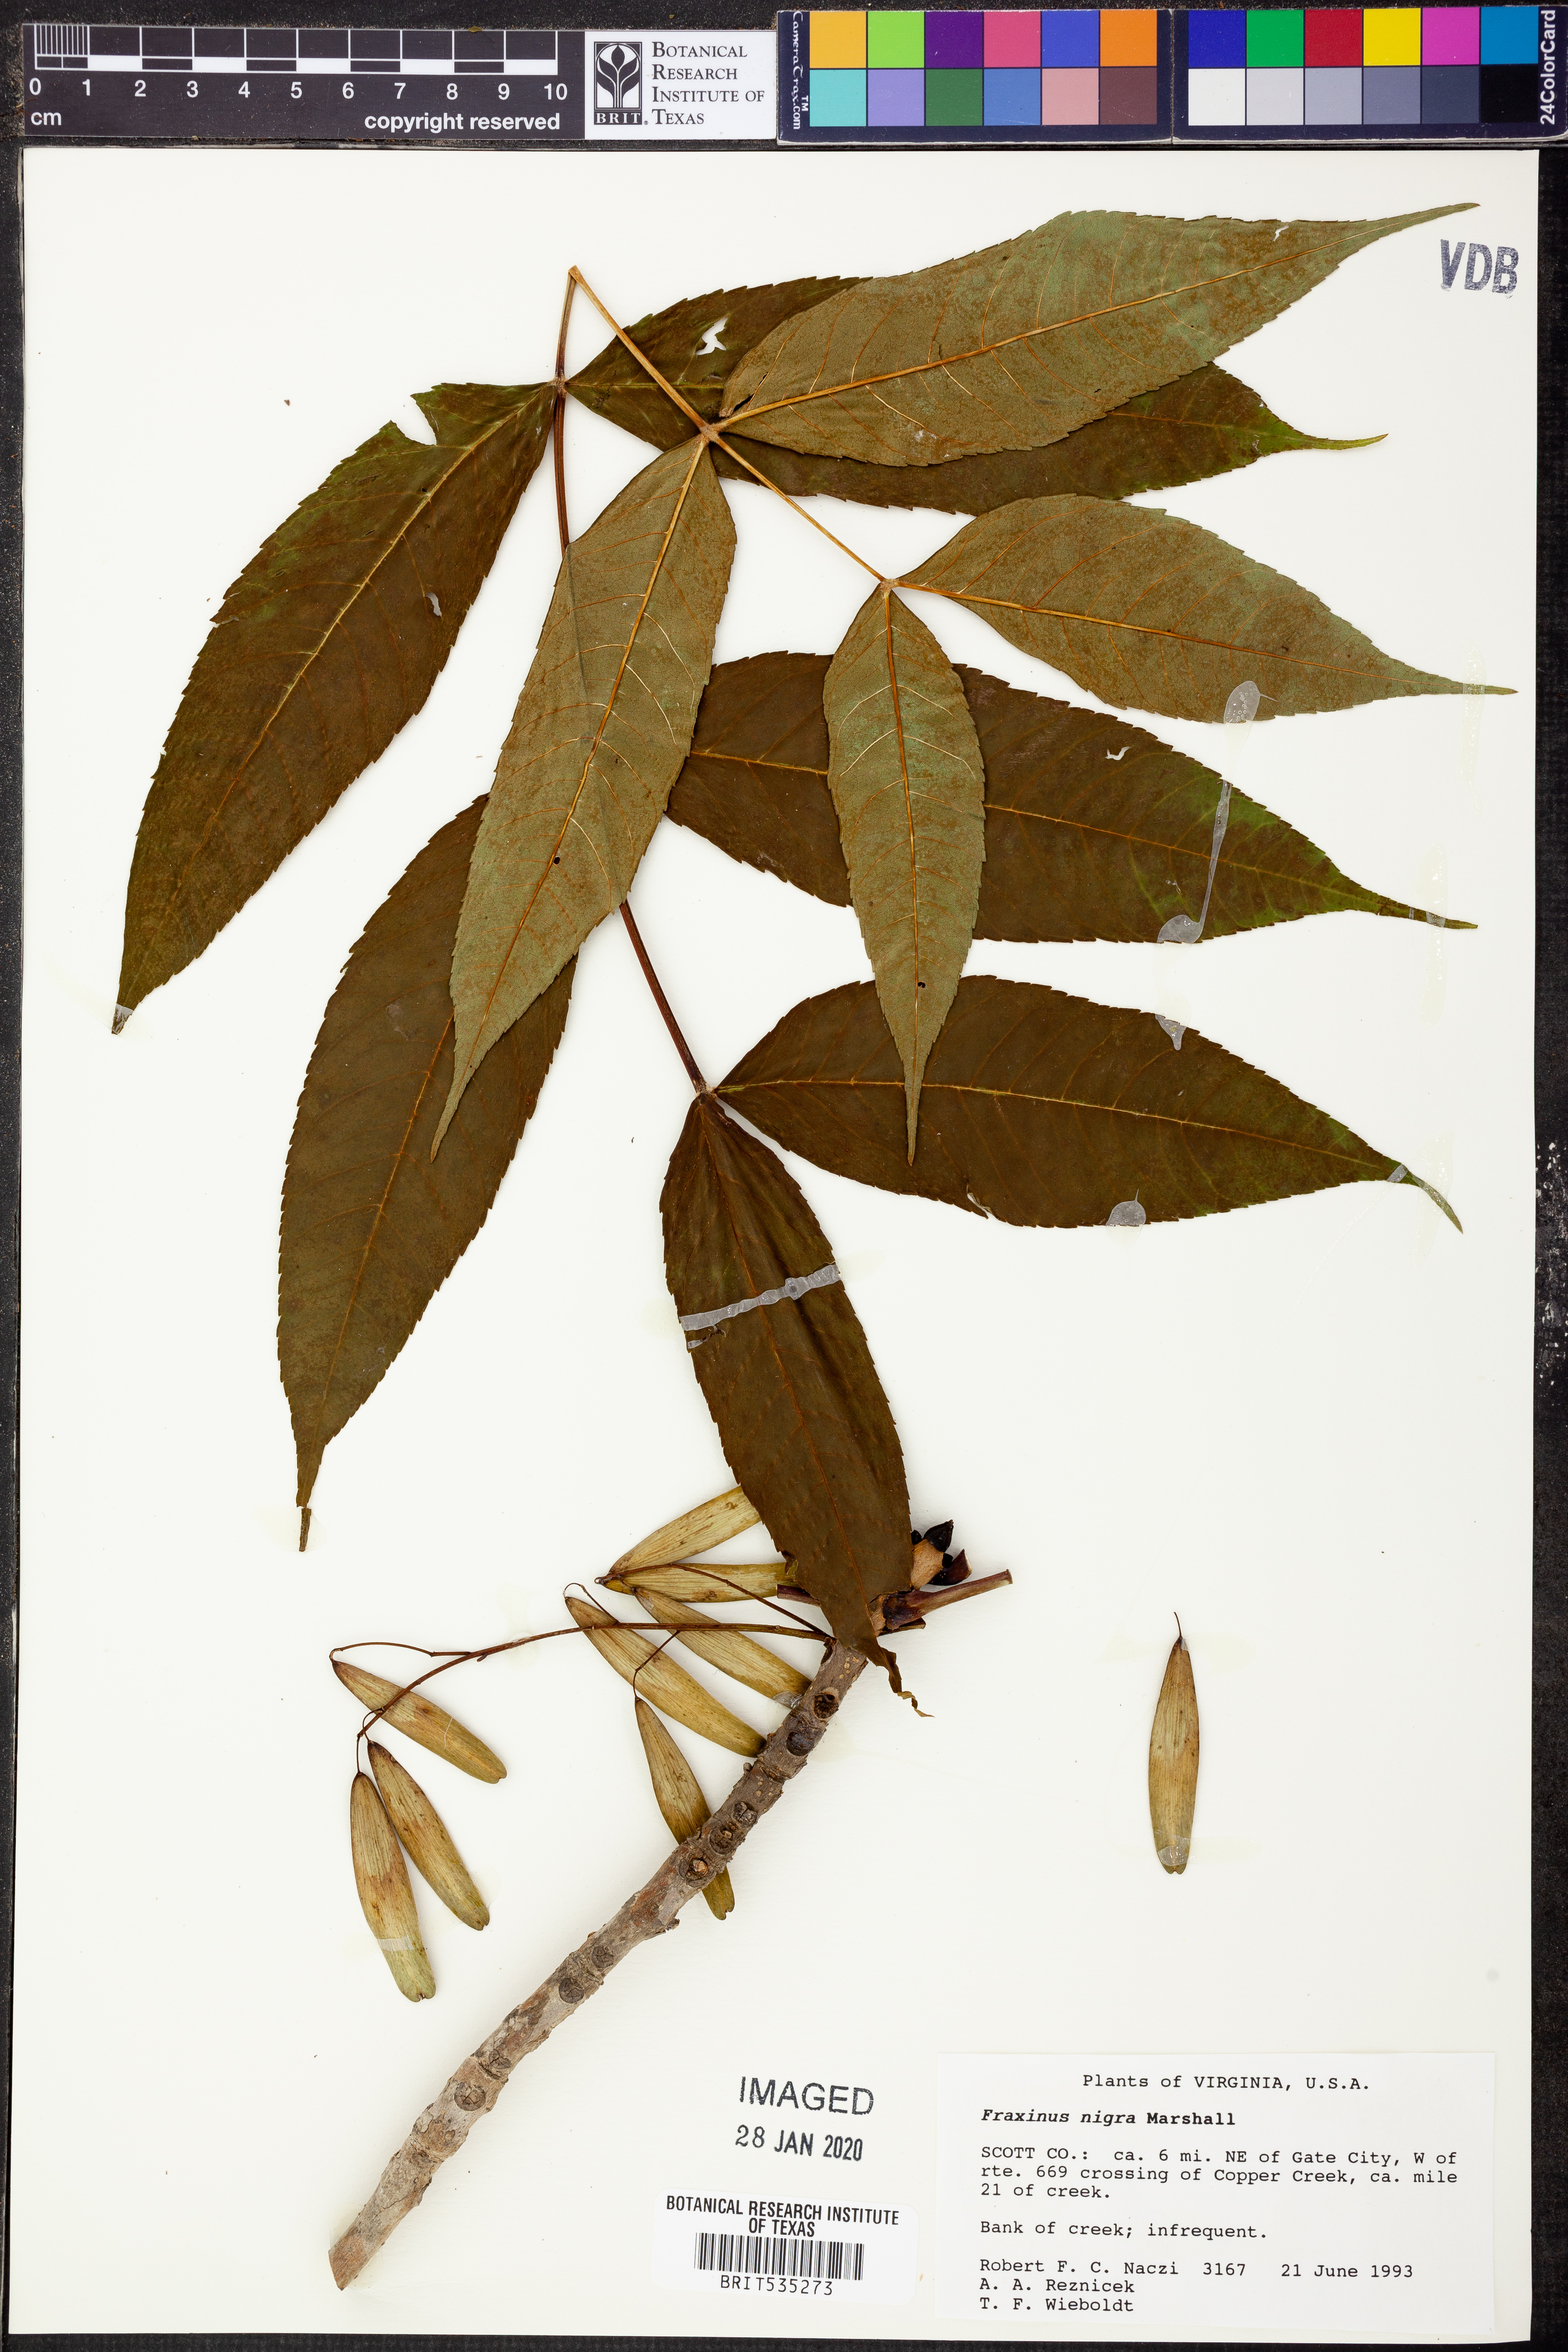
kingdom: Plantae
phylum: Tracheophyta
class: Magnoliopsida
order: Lamiales
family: Oleaceae
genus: Fraxinus
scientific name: Fraxinus nigra
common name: Black ash
